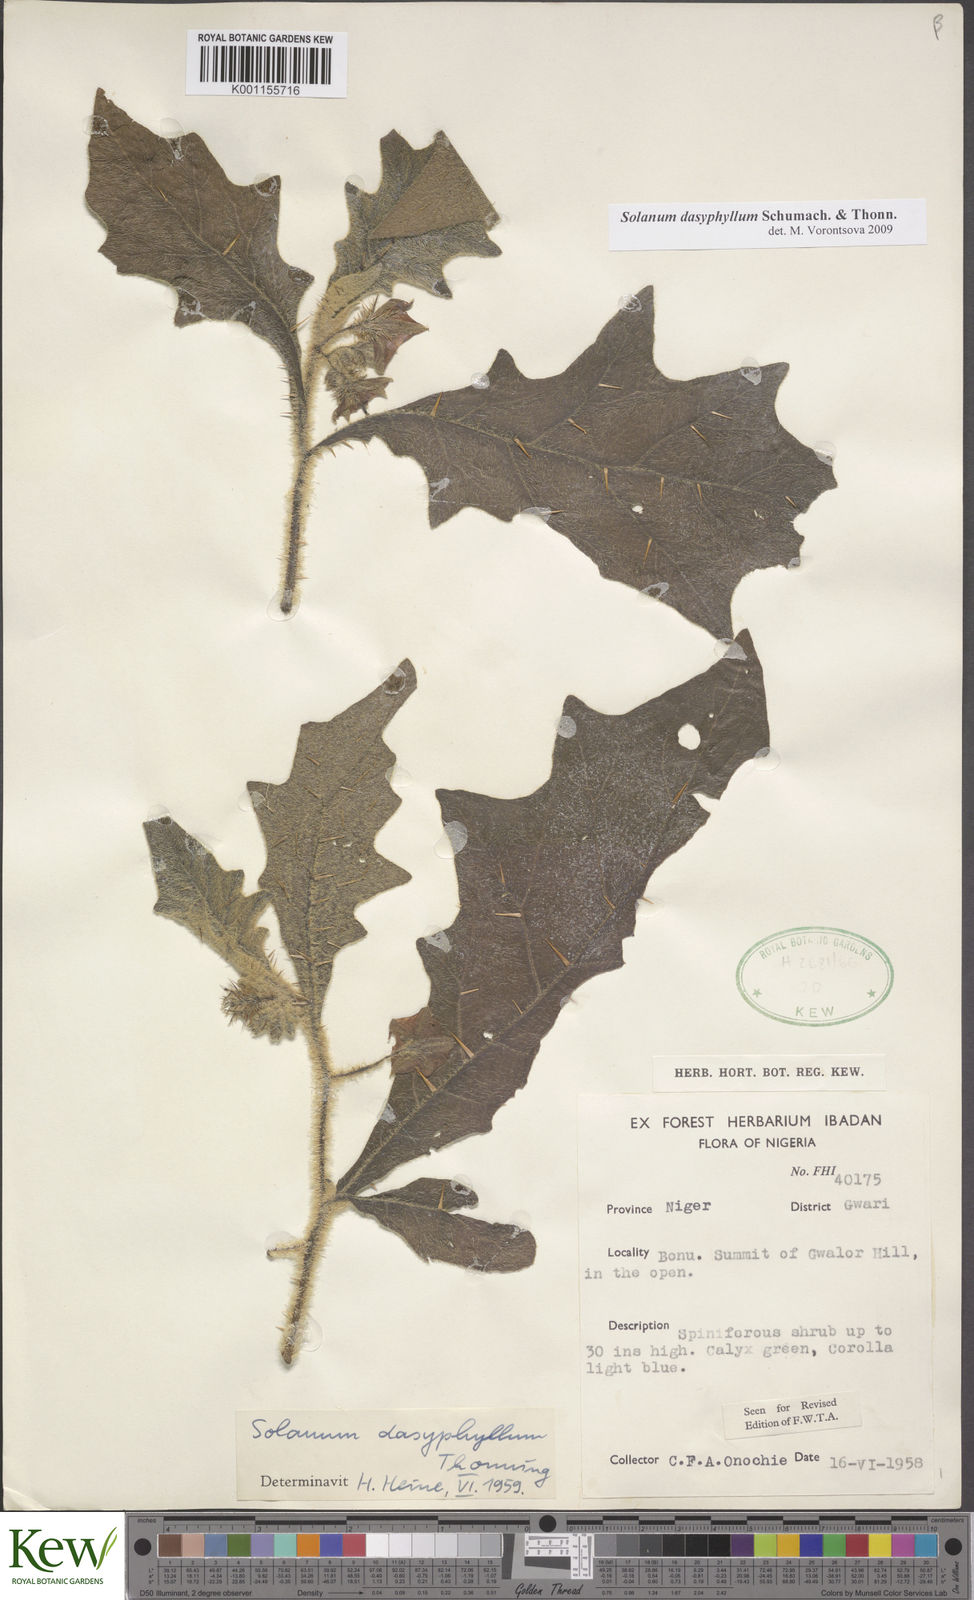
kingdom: Plantae
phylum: Tracheophyta
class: Magnoliopsida
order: Solanales
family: Solanaceae
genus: Solanum
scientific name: Solanum dasyphyllum
